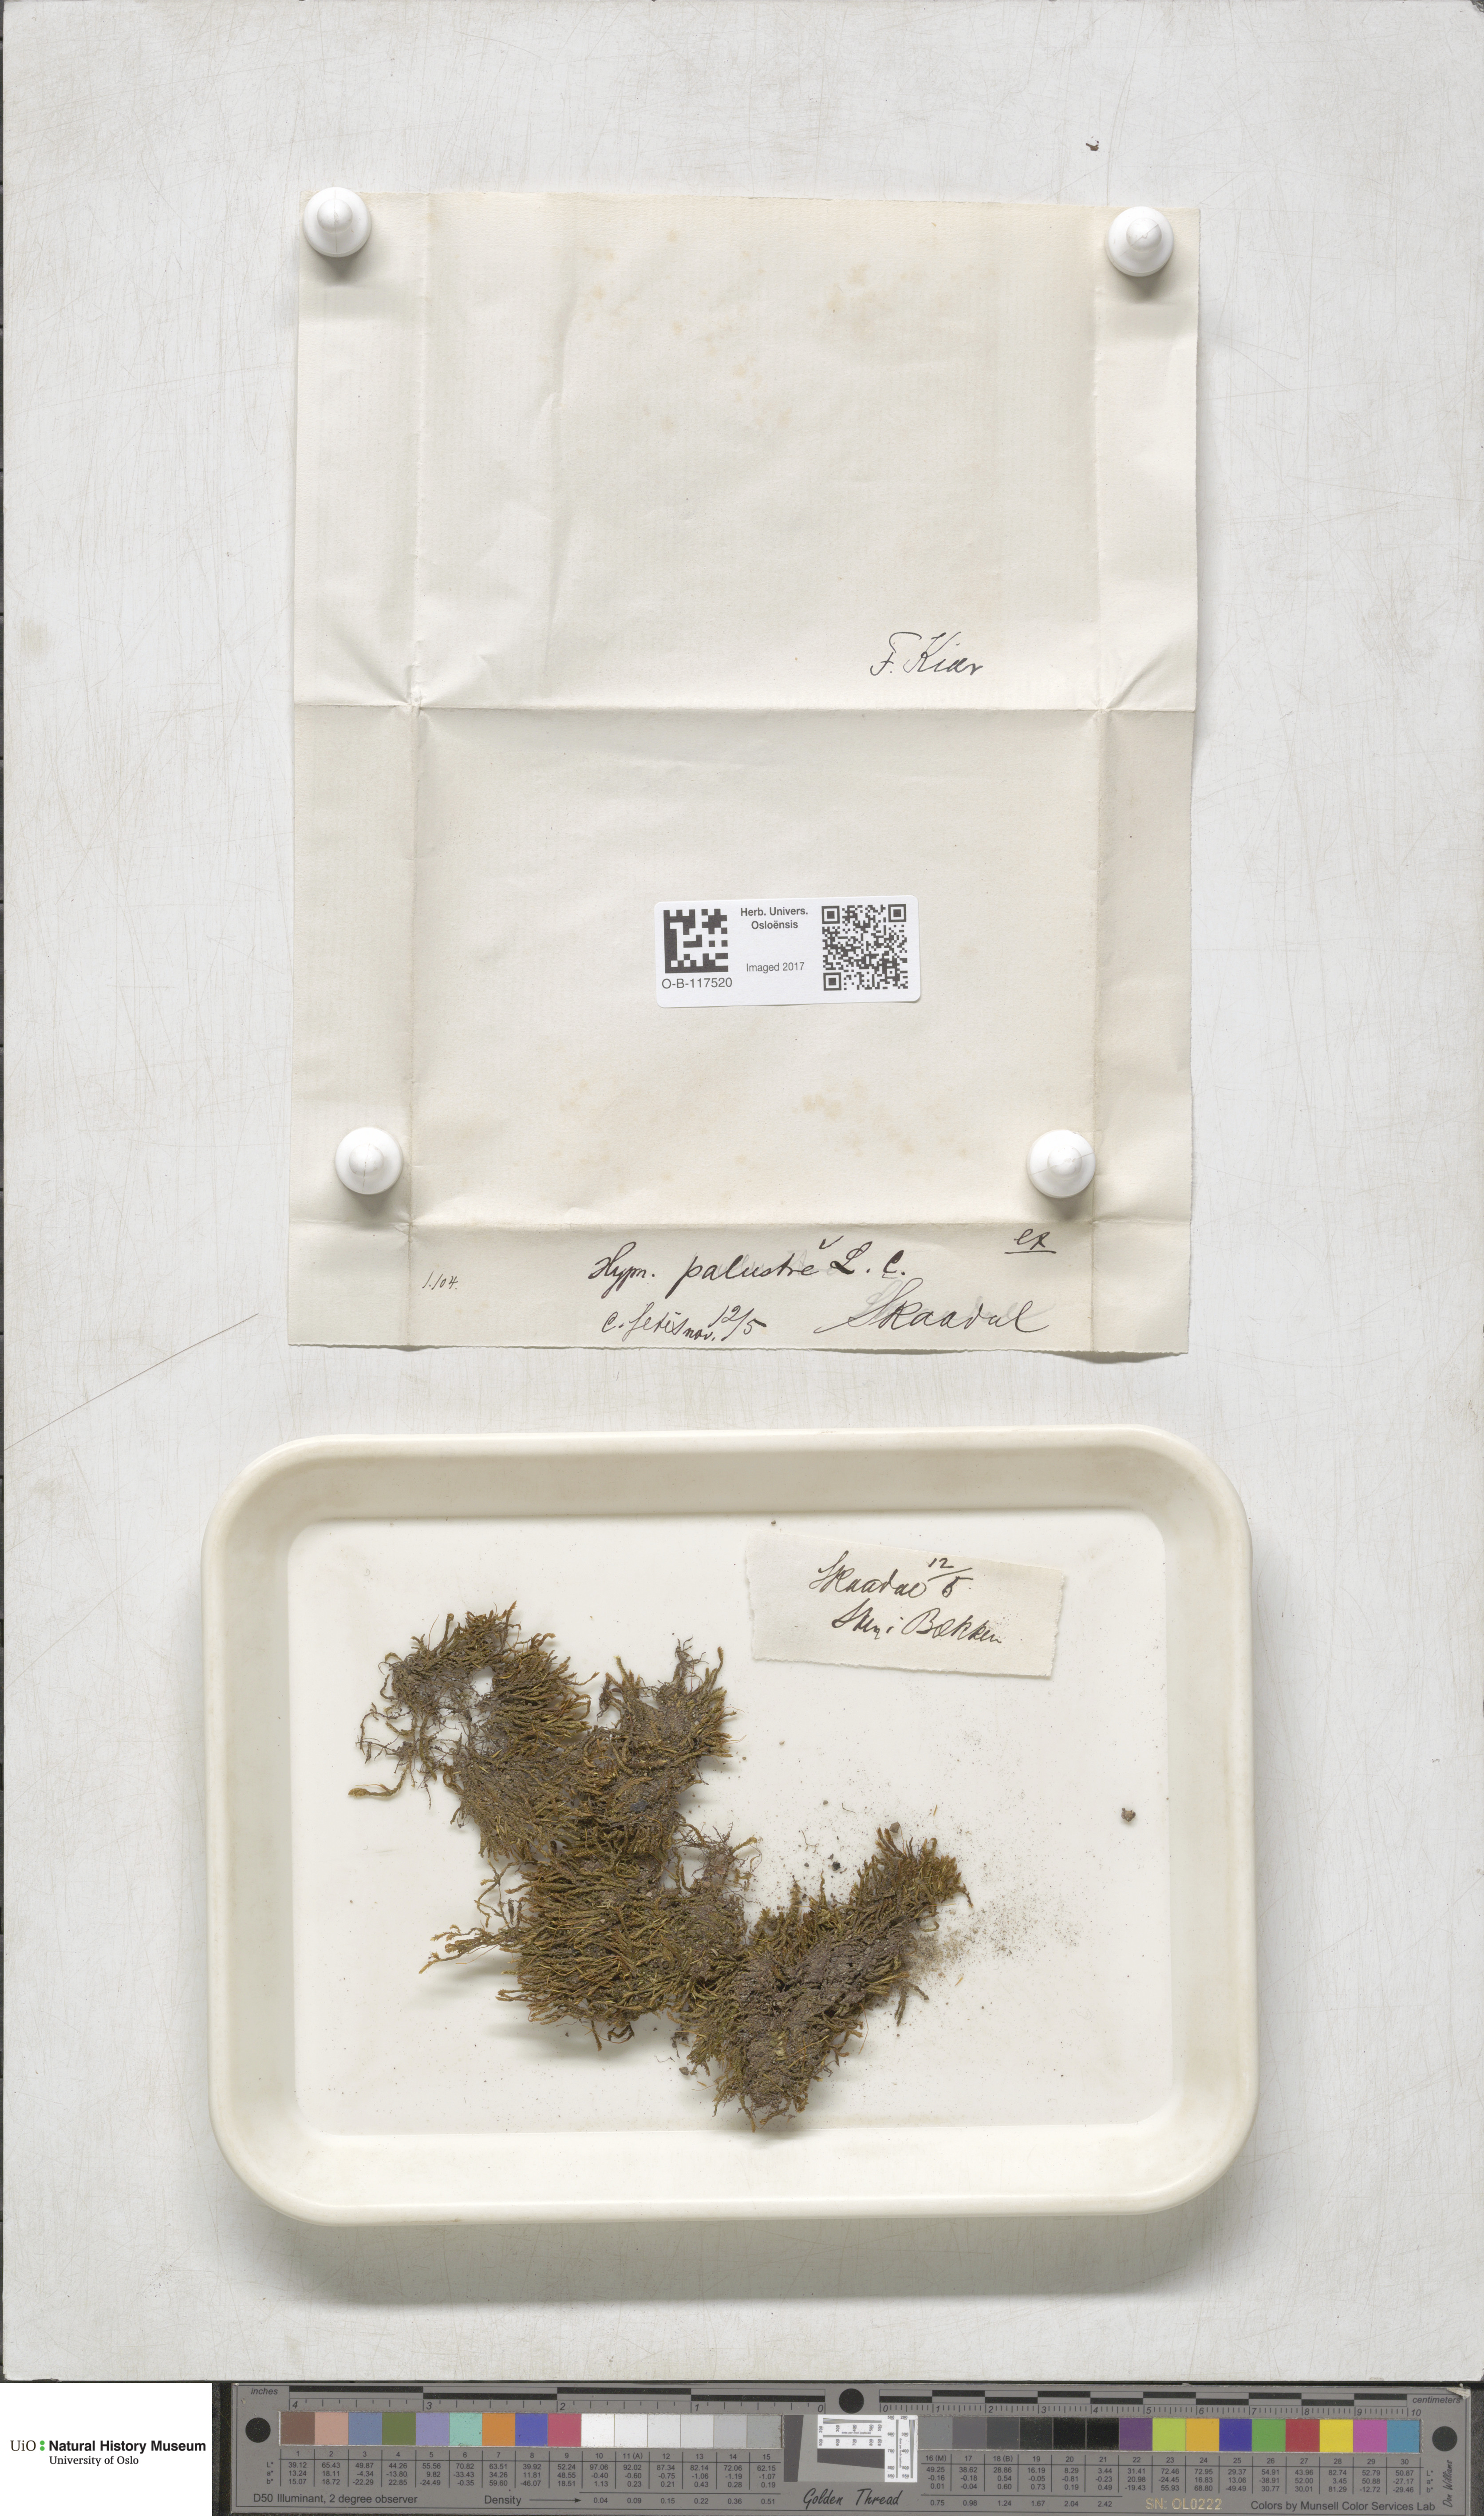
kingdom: Plantae
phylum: Bryophyta
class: Bryopsida
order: Hypnales
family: Amblystegiaceae
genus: Hygrohypnum
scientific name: Hygrohypnum luridum
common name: Drab brook moss
